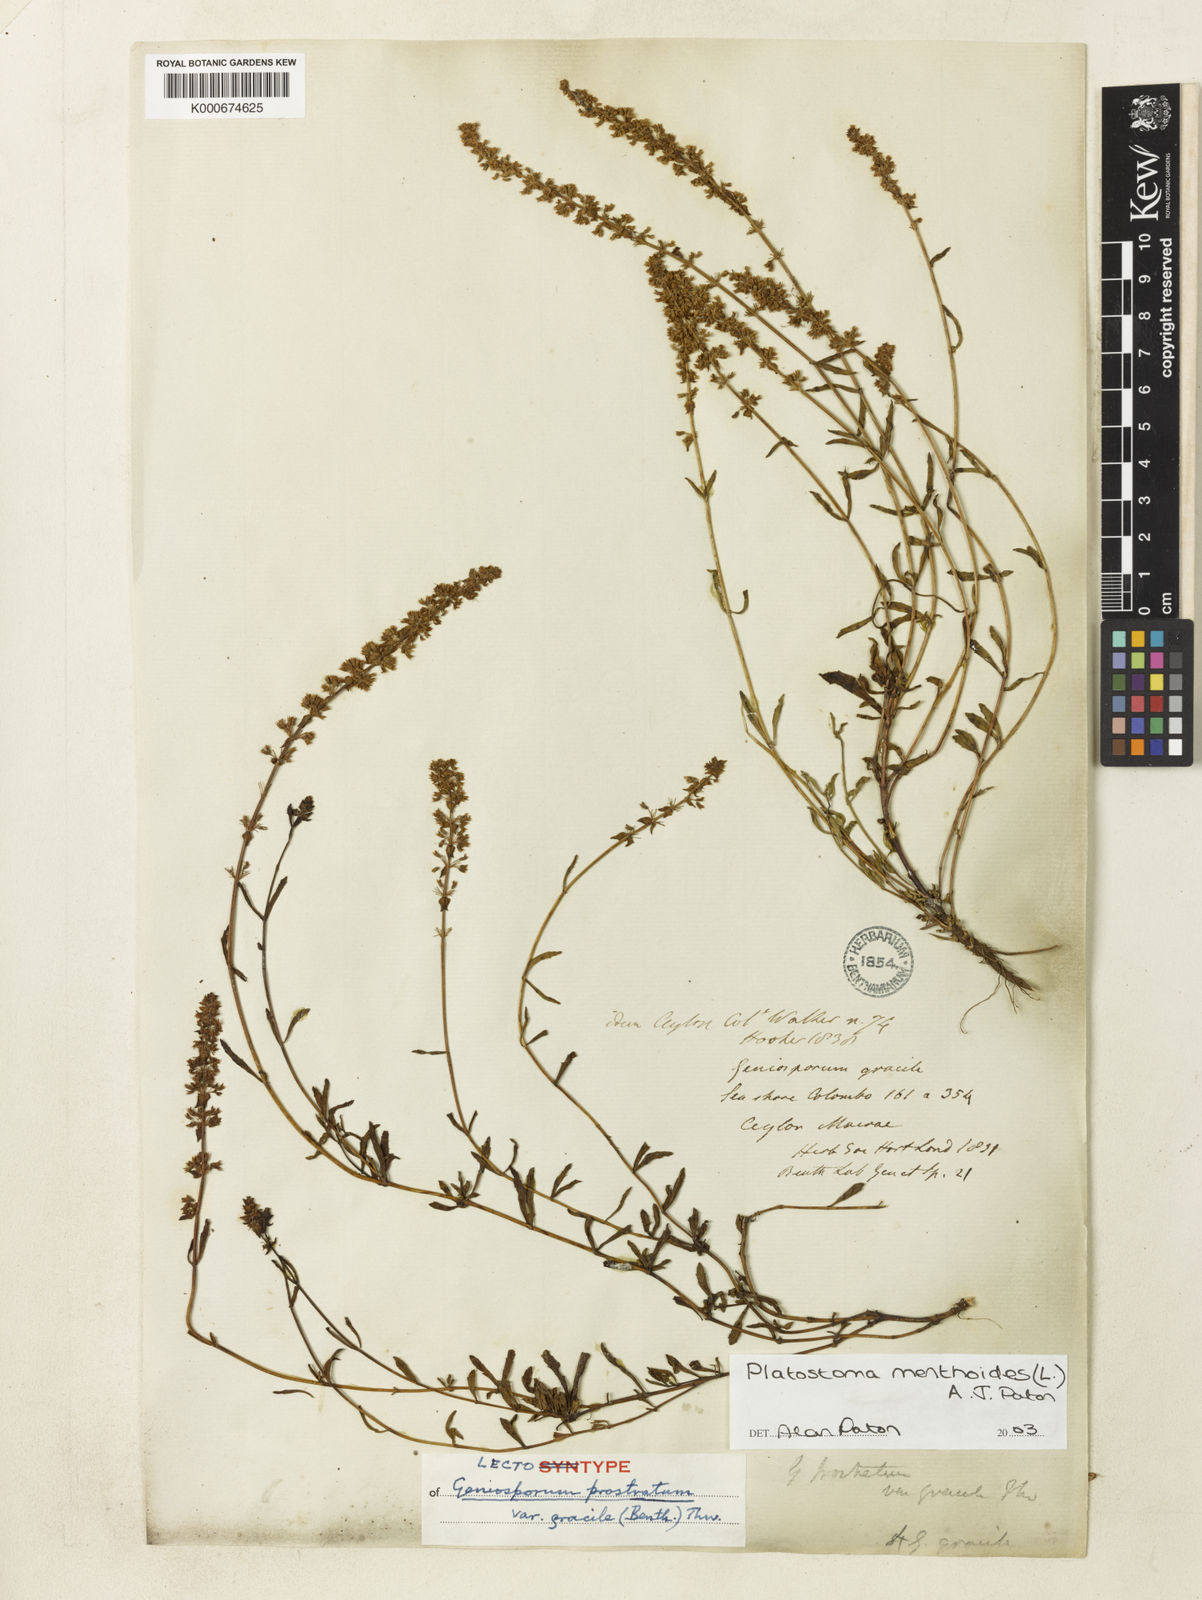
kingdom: Plantae
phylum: Tracheophyta
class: Magnoliopsida
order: Lamiales
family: Lamiaceae
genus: Platostoma
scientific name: Platostoma menthoides
